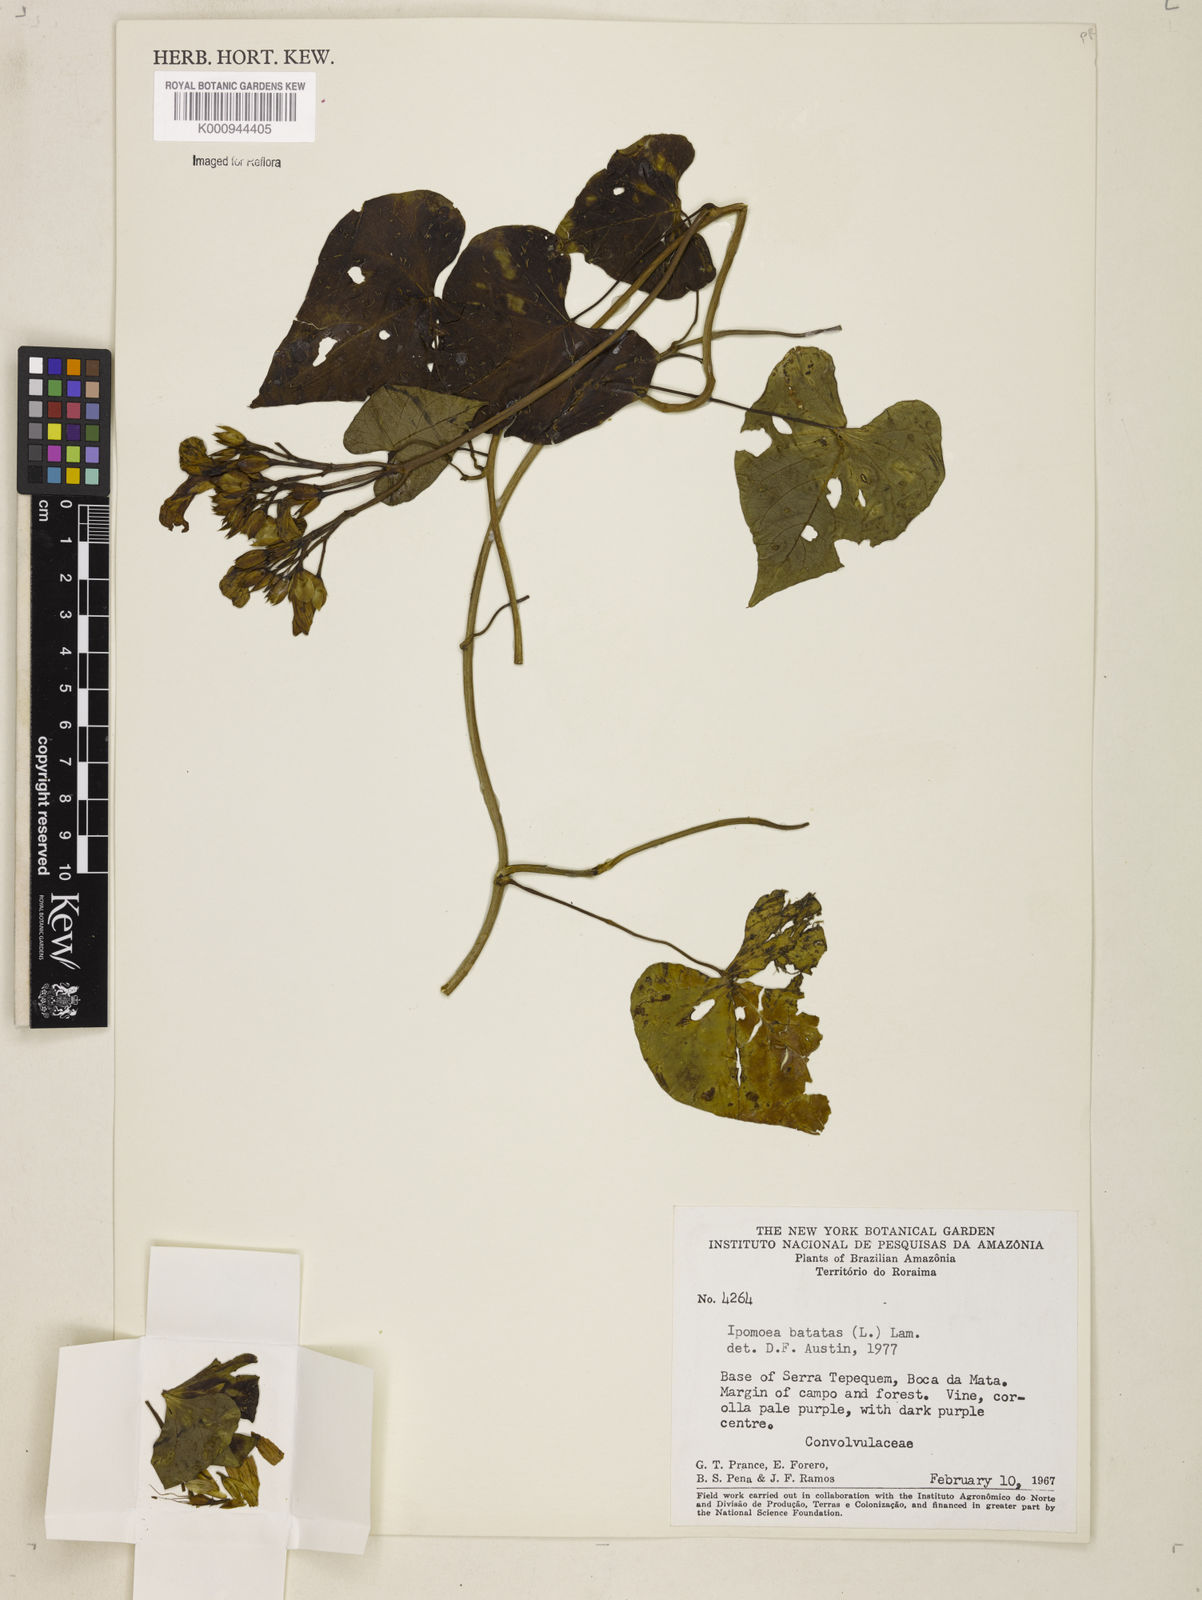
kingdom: Plantae
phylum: Tracheophyta
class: Magnoliopsida
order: Solanales
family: Convolvulaceae
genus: Ipomoea
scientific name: Ipomoea batatas
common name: Sweet-potato
